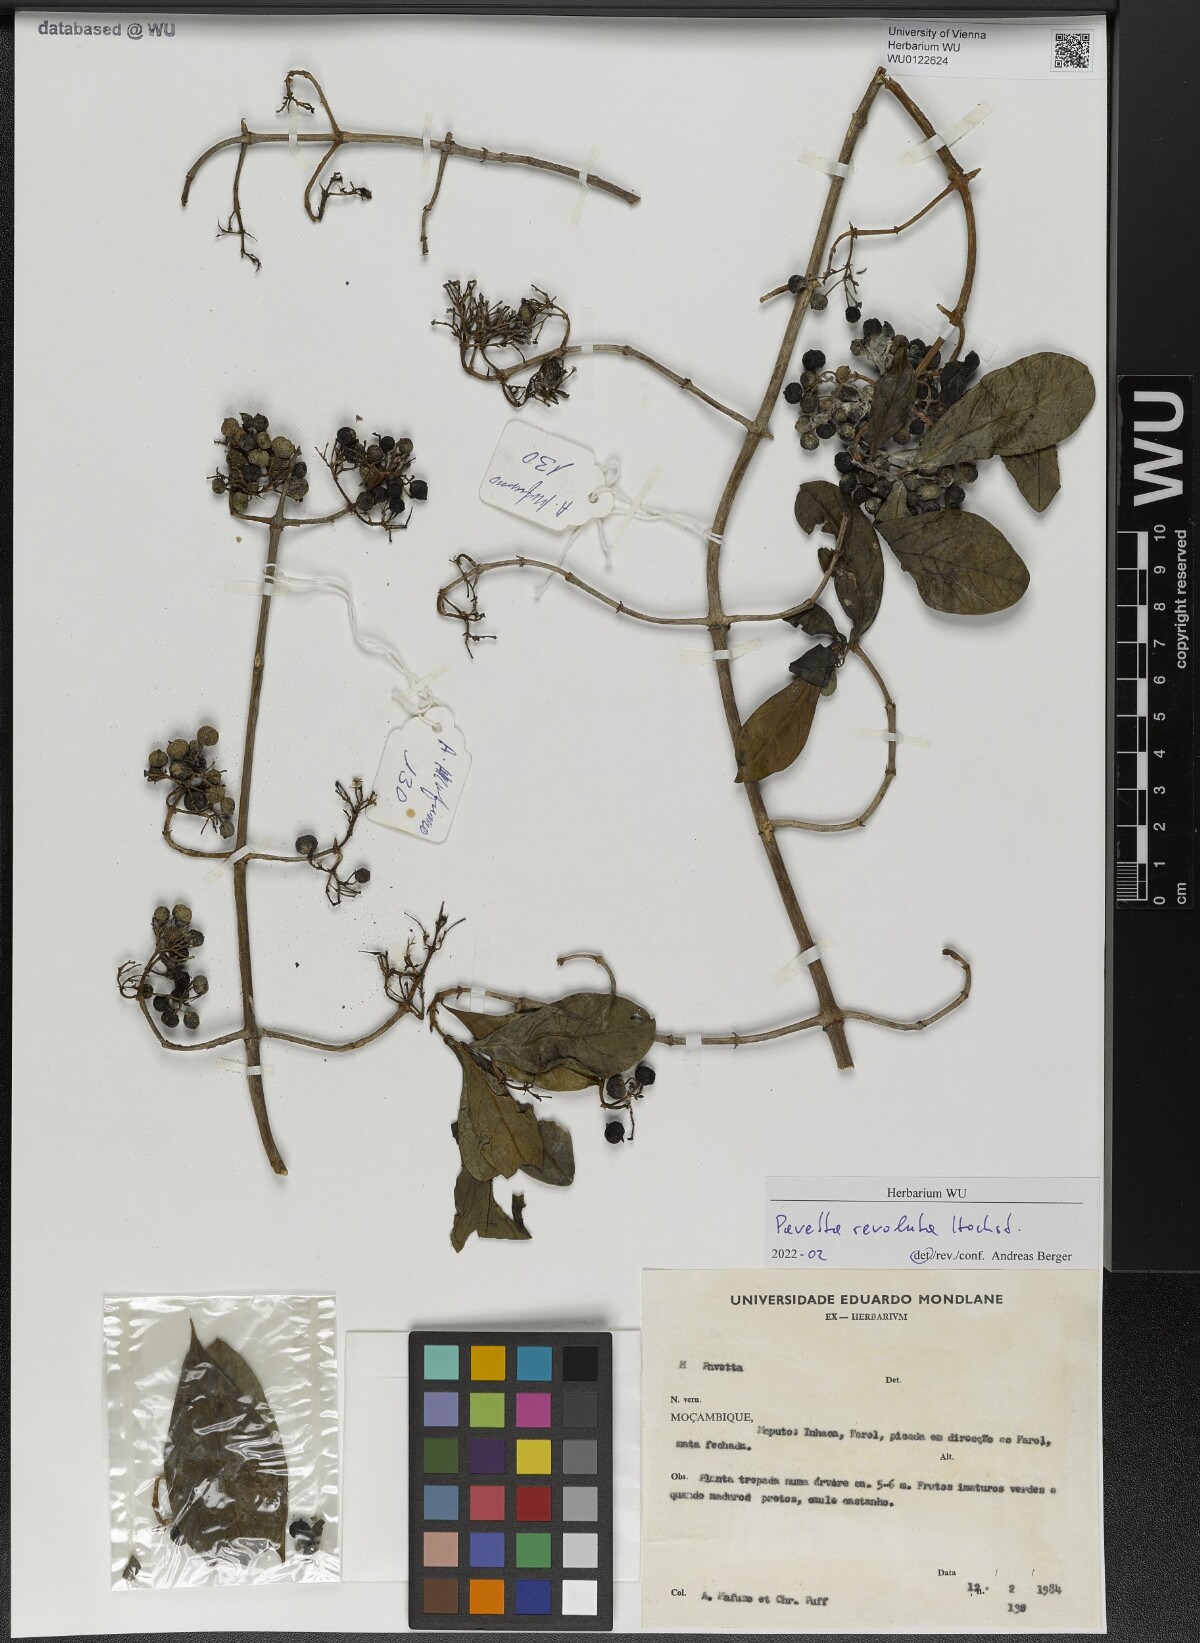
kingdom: Plantae
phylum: Tracheophyta
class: Magnoliopsida
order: Gentianales
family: Rubiaceae
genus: Pavetta
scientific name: Pavetta revoluta
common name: Dune brides-bush
